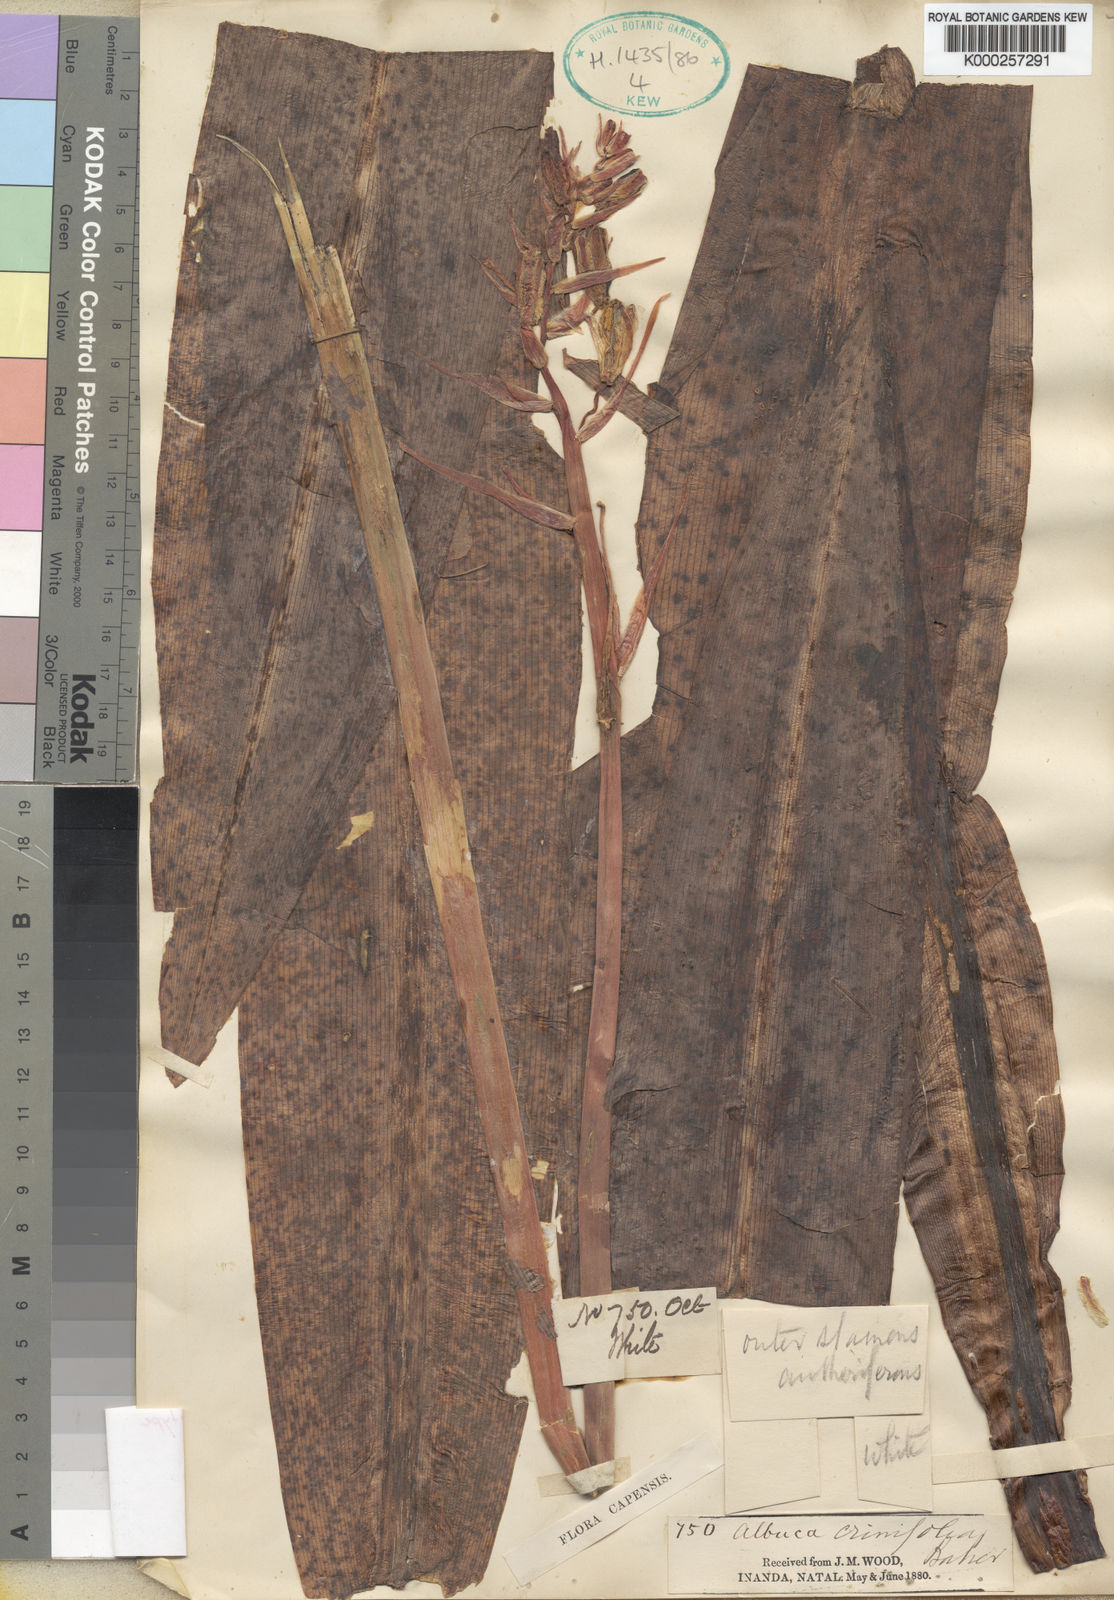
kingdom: Plantae
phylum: Tracheophyta
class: Liliopsida
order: Asparagales
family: Asparagaceae
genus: Albuca
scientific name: Albuca crinifolia
